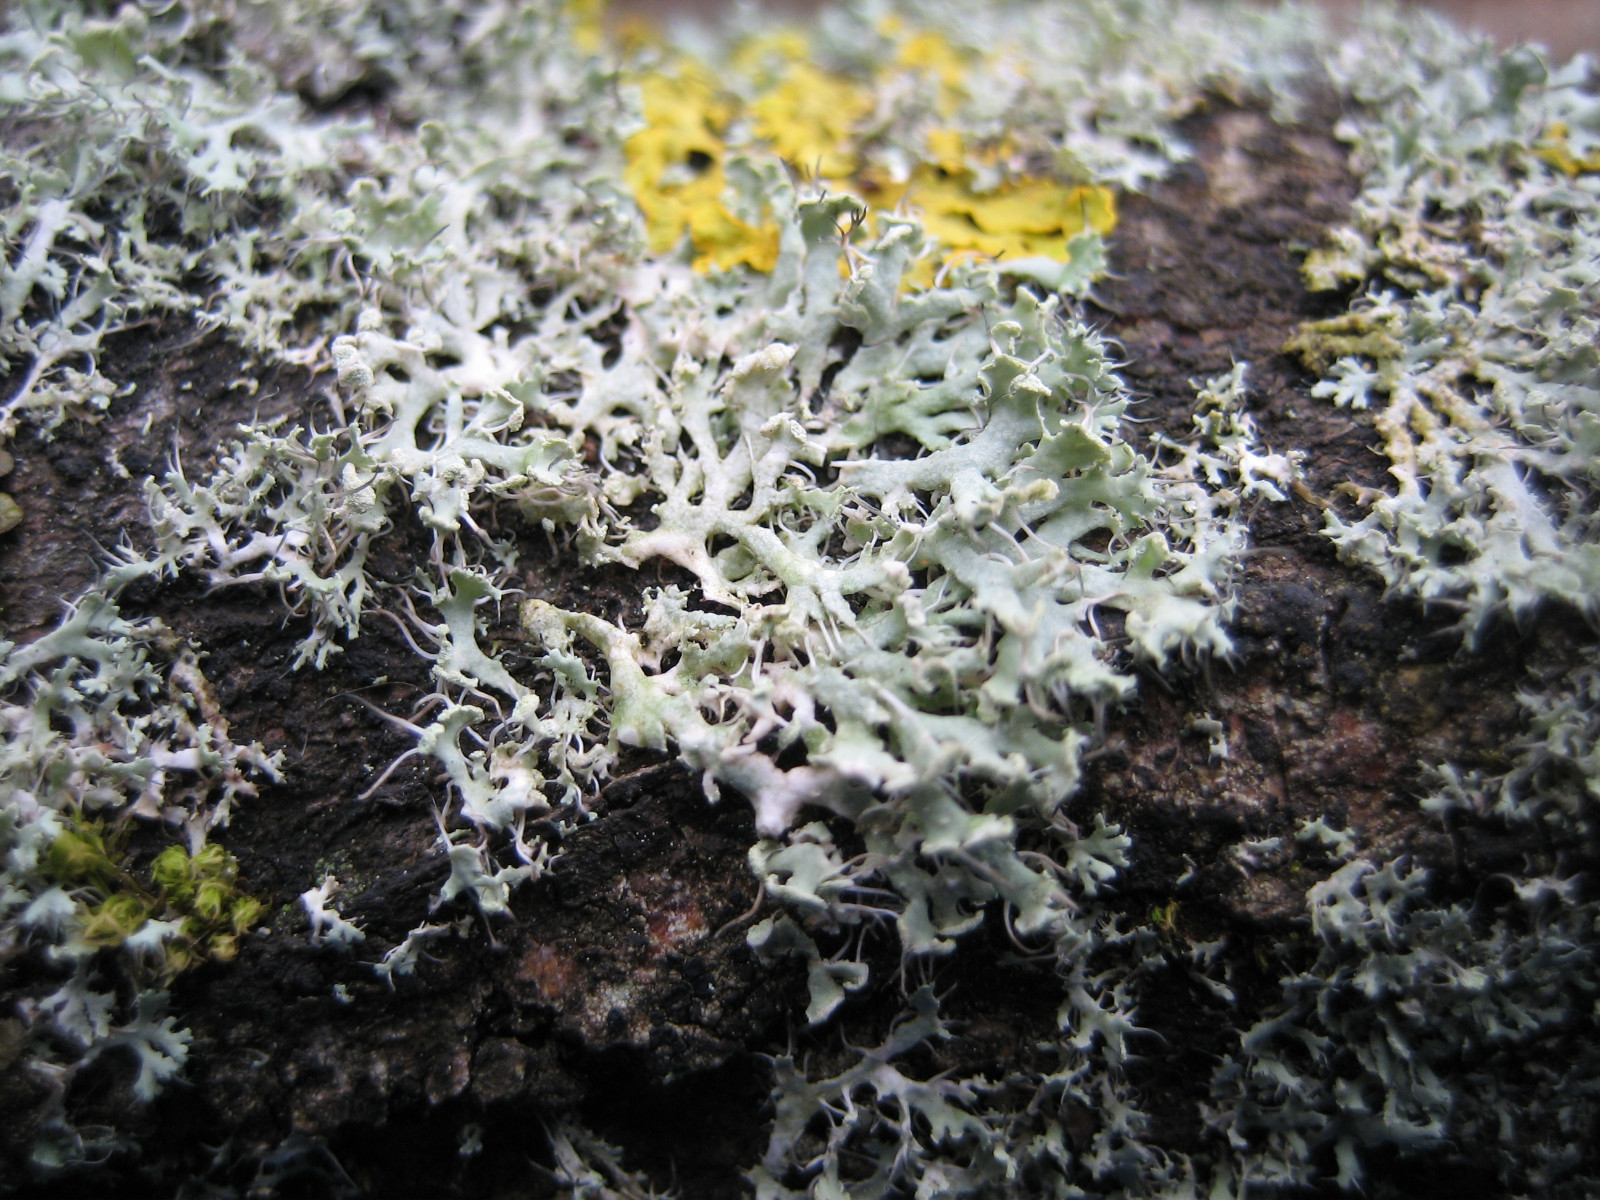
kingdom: Fungi
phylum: Ascomycota
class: Lecanoromycetes
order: Caliciales
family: Physciaceae
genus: Physcia
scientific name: Physcia tenella
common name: spæd rosetlav
